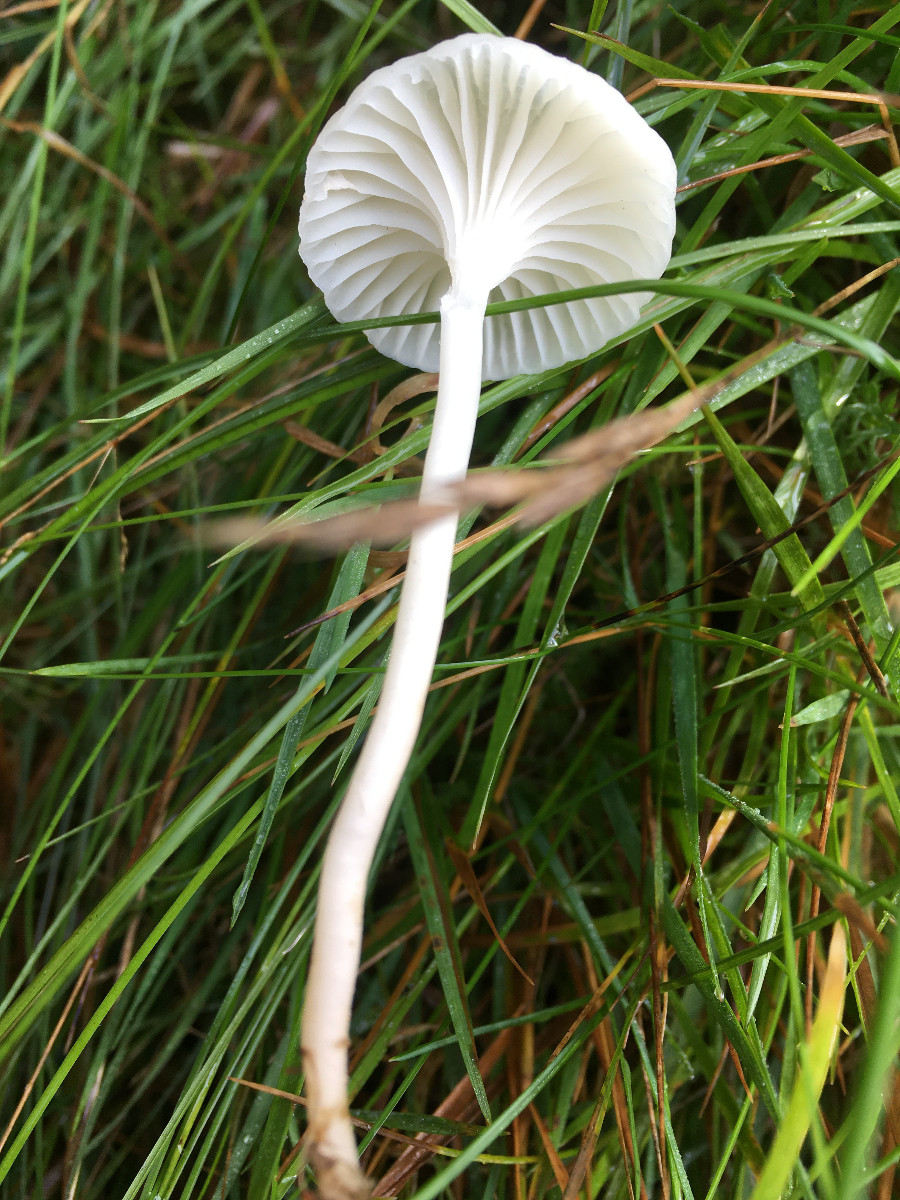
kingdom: Fungi
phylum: Basidiomycota
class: Agaricomycetes
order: Agaricales
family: Hygrophoraceae
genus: Cuphophyllus
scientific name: Cuphophyllus virgineus
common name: snehvid vokshat
